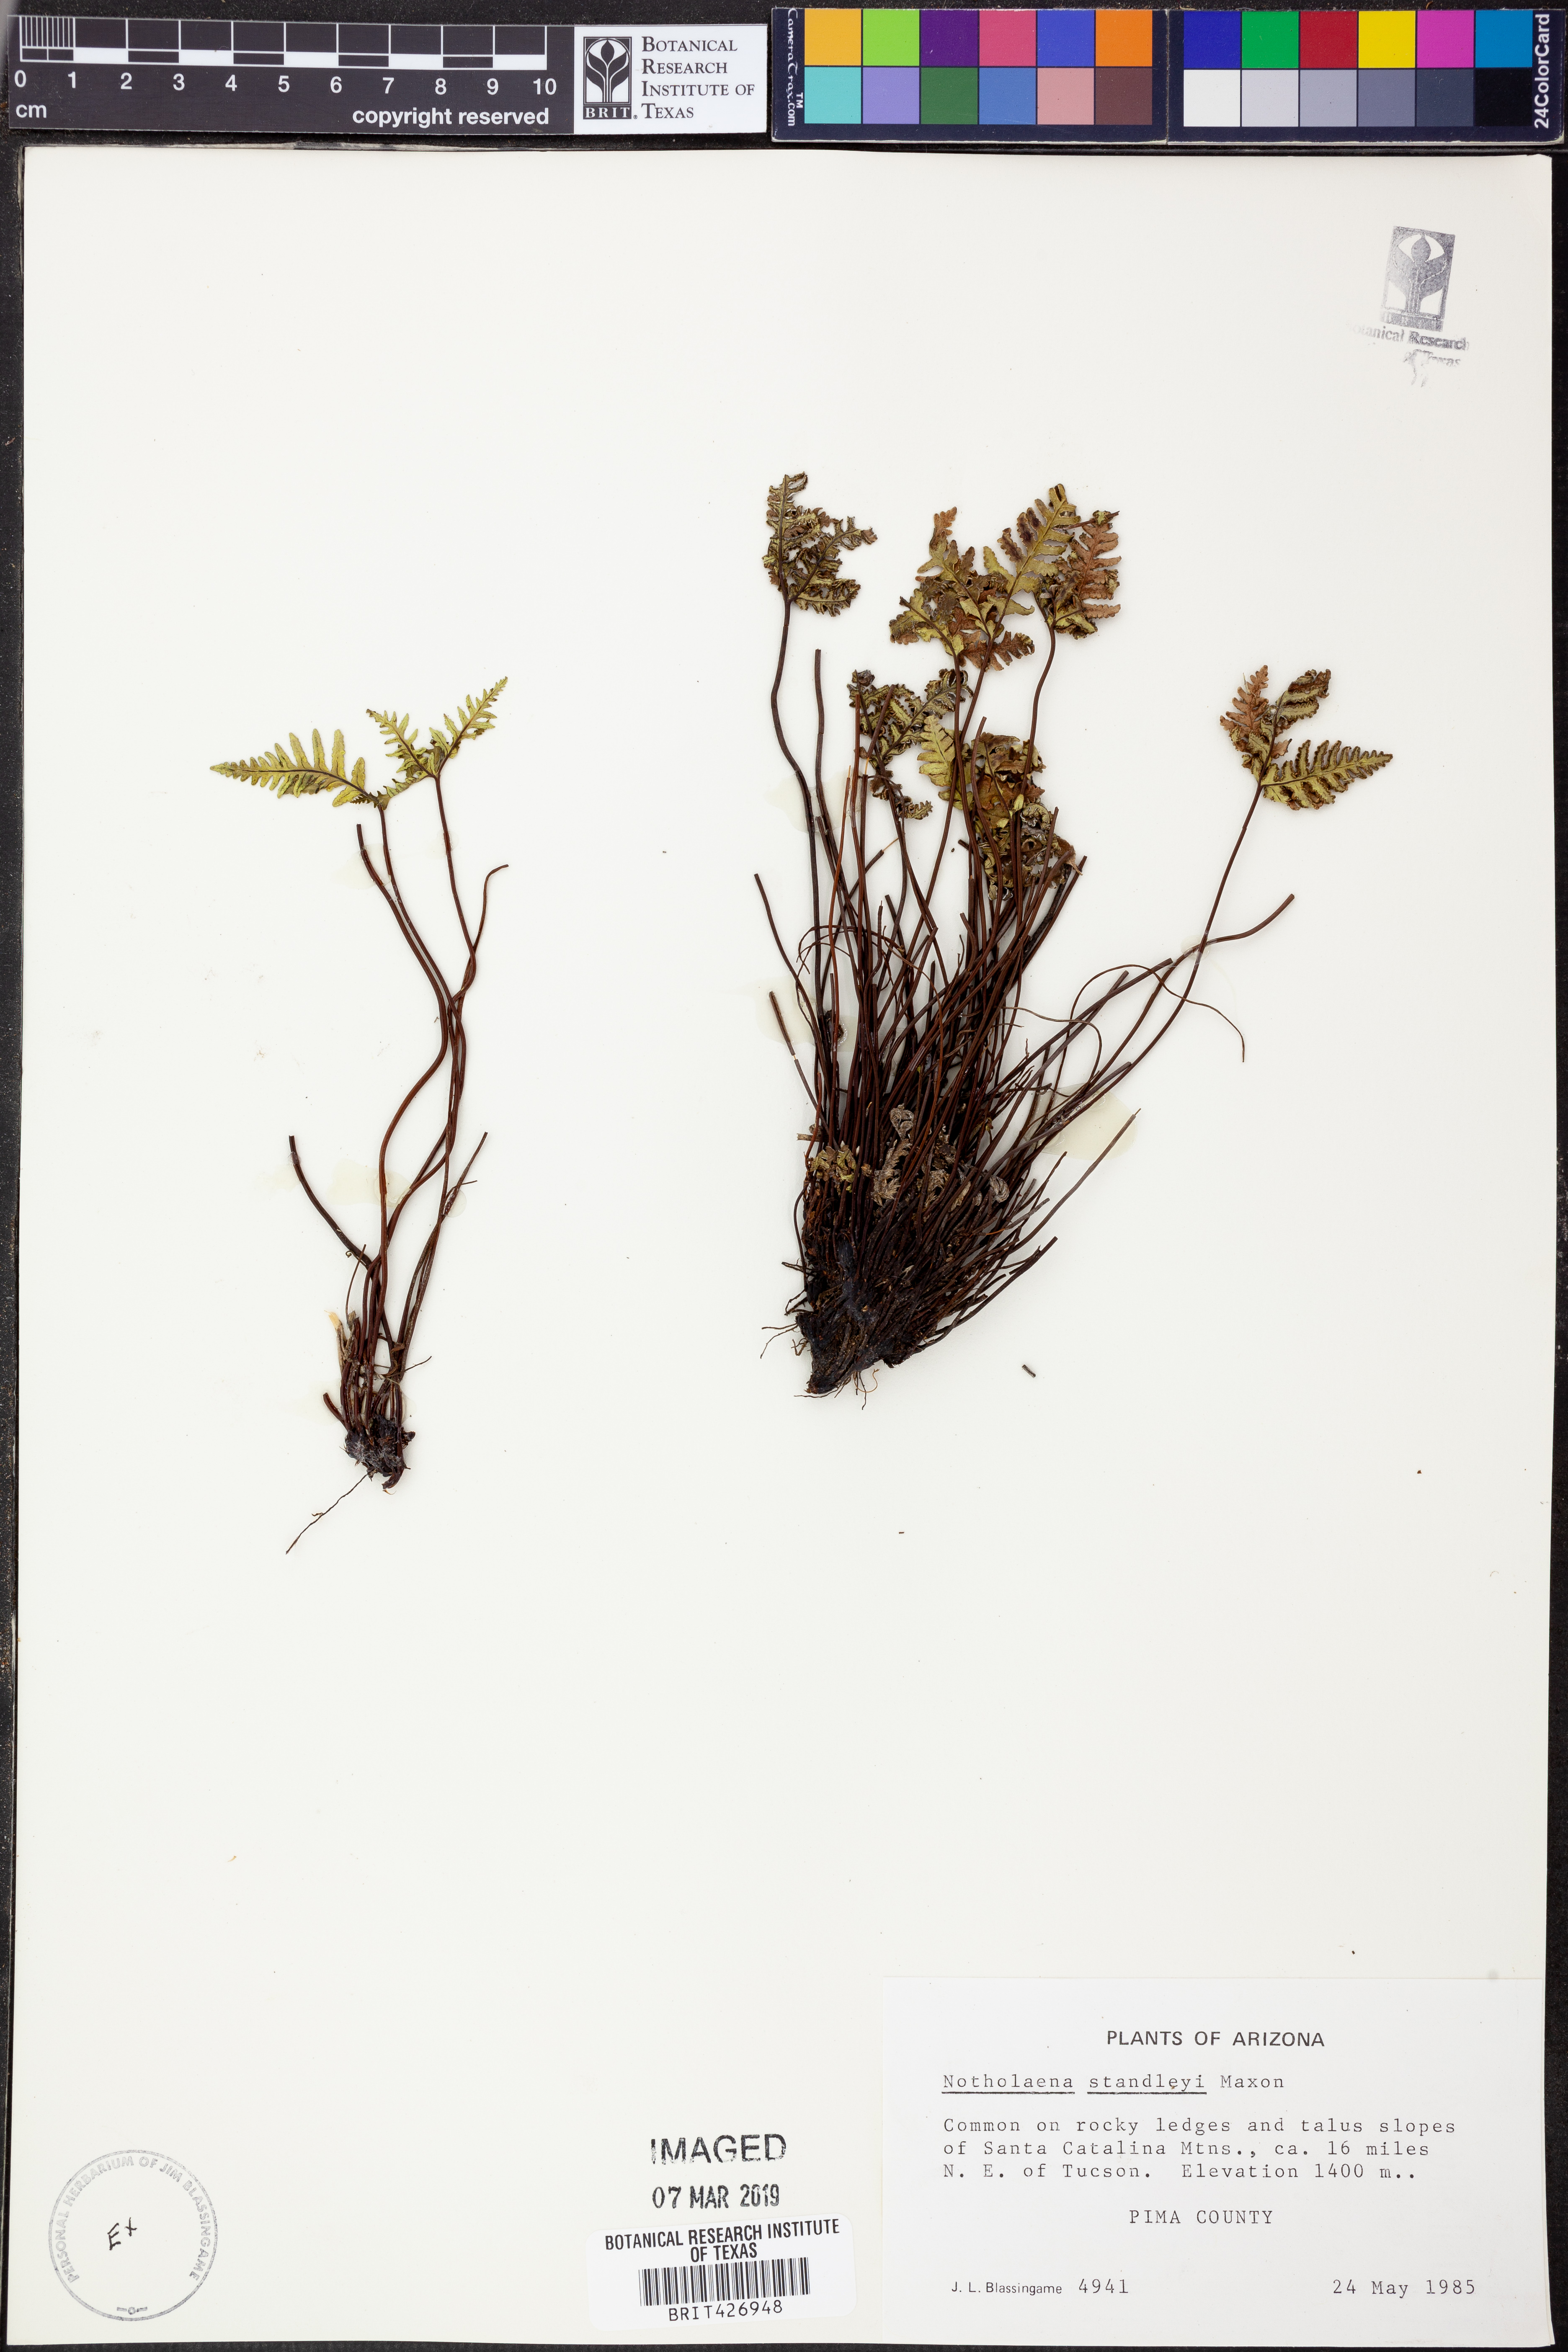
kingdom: Plantae
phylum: Tracheophyta
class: Polypodiopsida
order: Polypodiales
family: Pteridaceae
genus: Notholaena
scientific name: Notholaena standleyi
